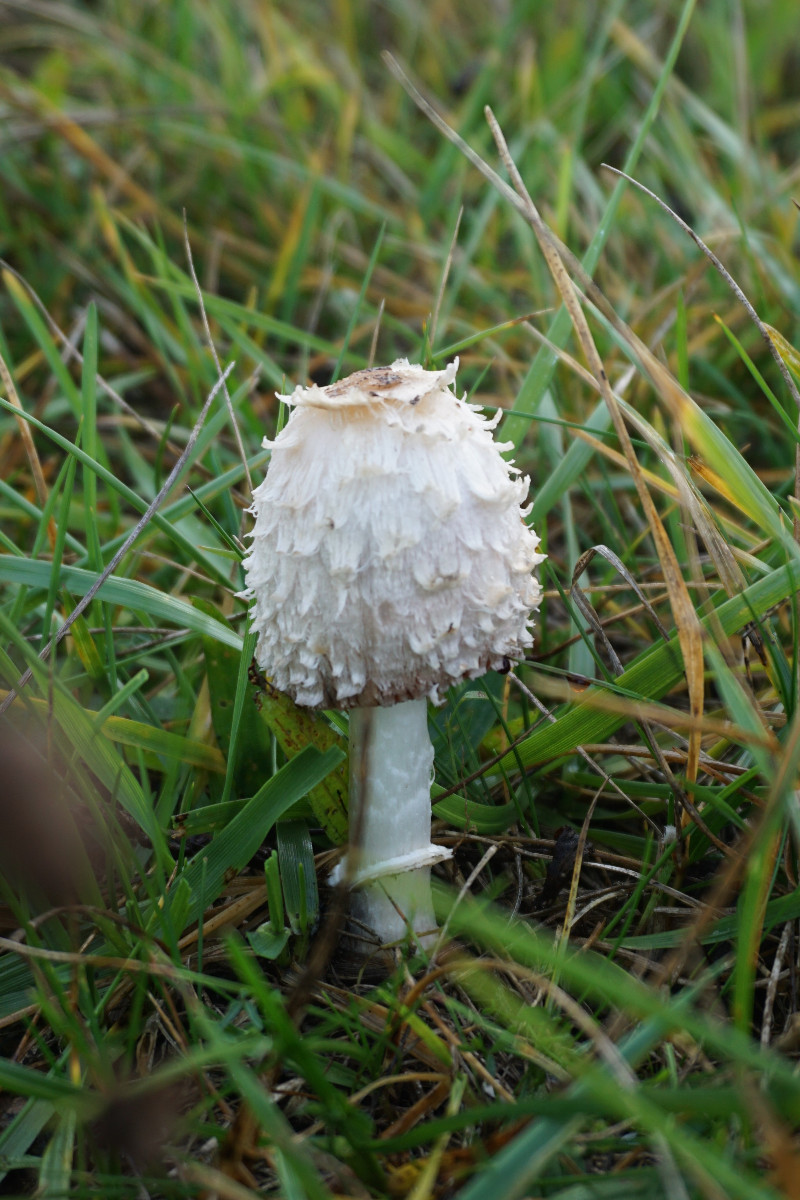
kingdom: Fungi
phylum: Basidiomycota
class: Agaricomycetes
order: Agaricales
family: Agaricaceae
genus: Coprinus
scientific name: Coprinus comatus
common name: stor parykhat
